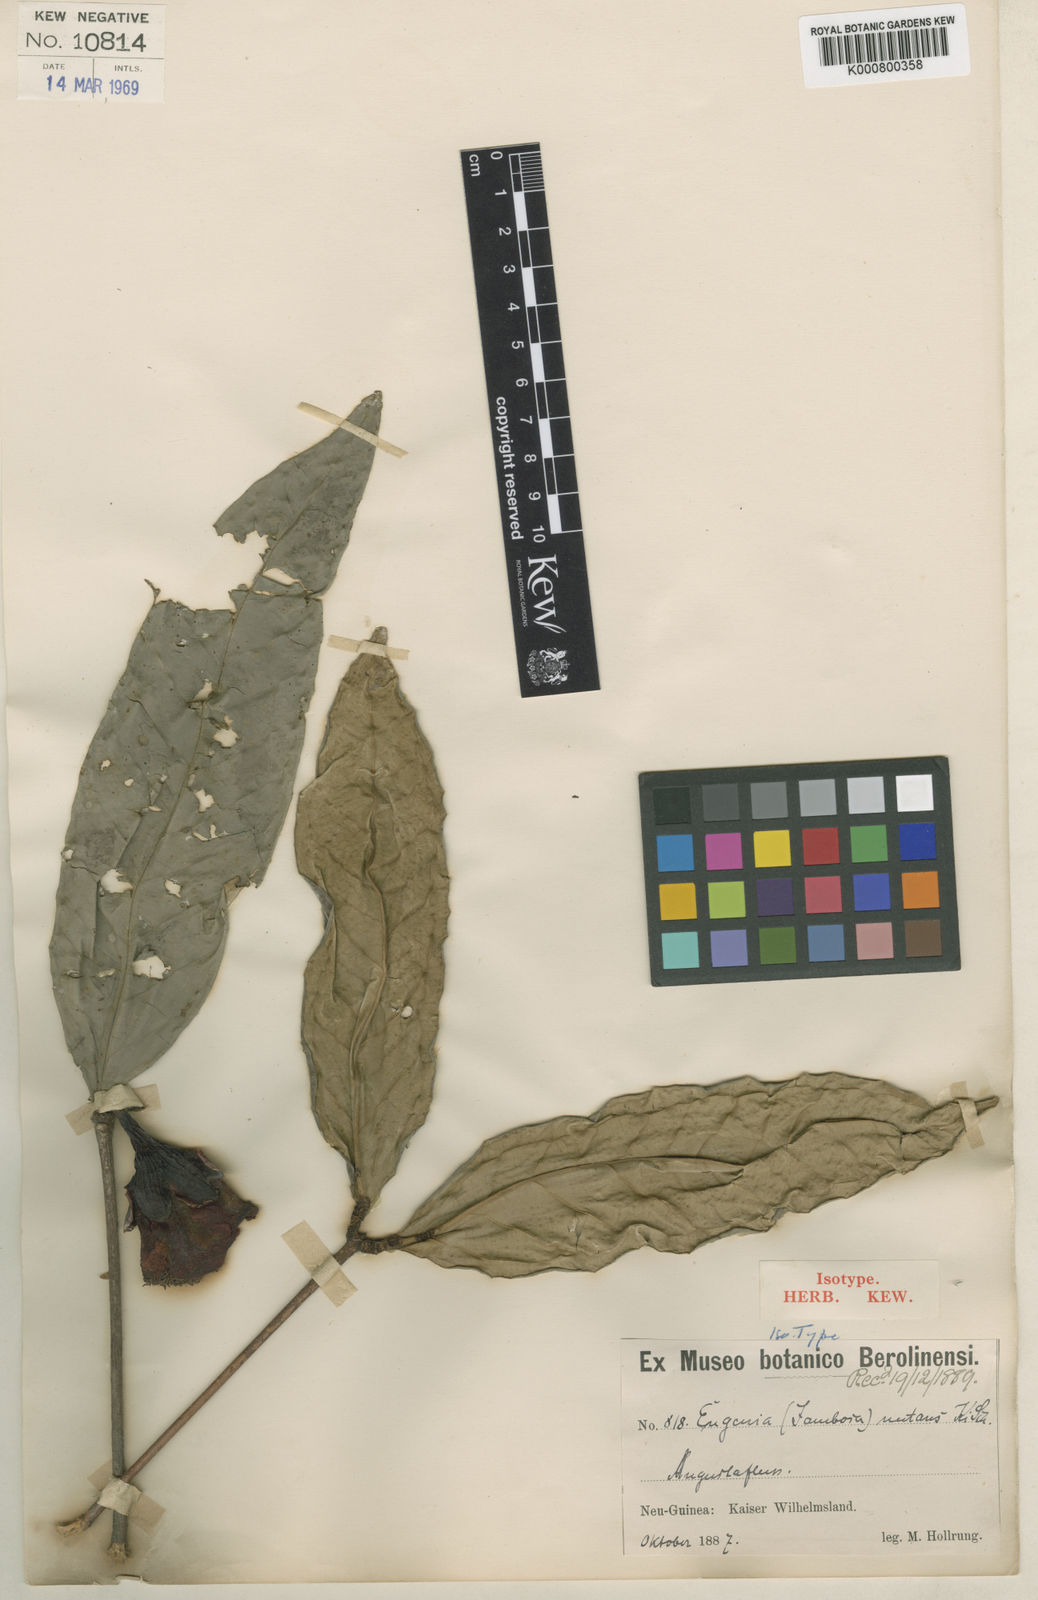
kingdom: Plantae
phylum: Tracheophyta
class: Magnoliopsida
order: Myrtales
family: Myrtaceae
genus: Syzygium
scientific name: Syzygium nutans
